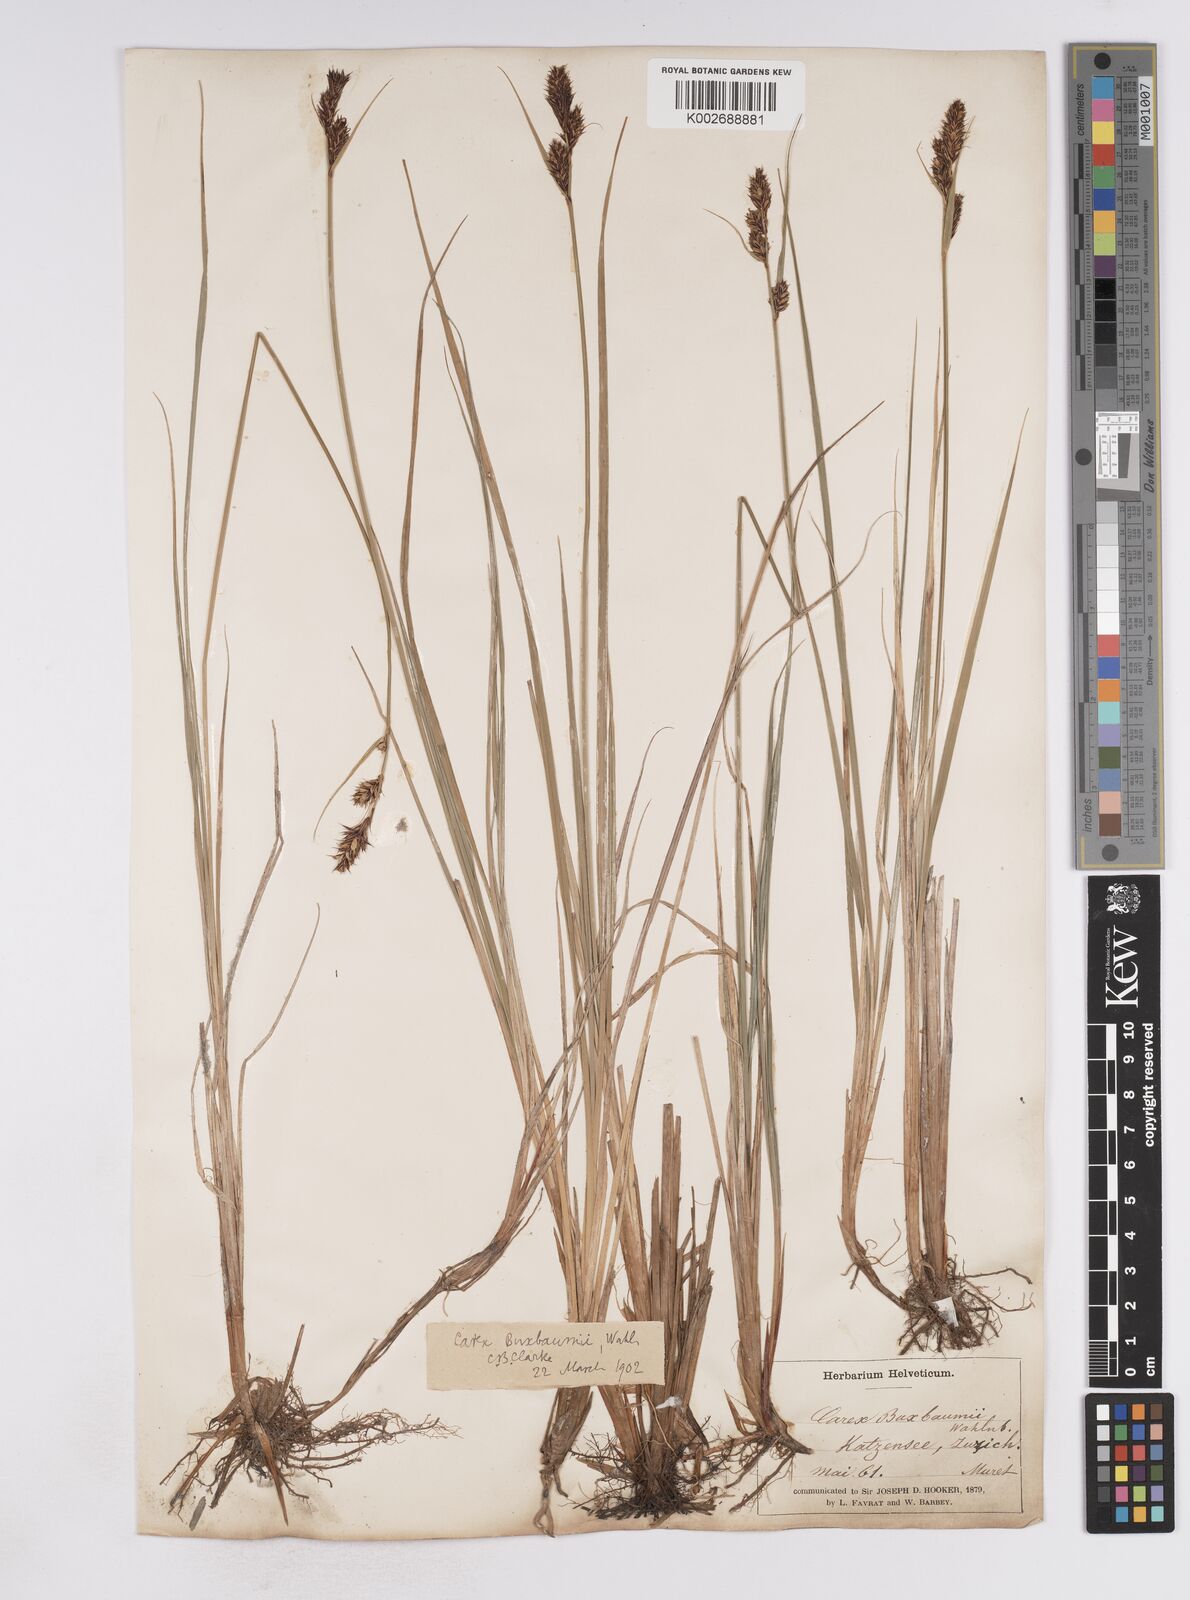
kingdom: Plantae
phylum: Tracheophyta
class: Liliopsida
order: Poales
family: Cyperaceae
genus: Carex
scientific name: Carex buxbaumii
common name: Club sedge
